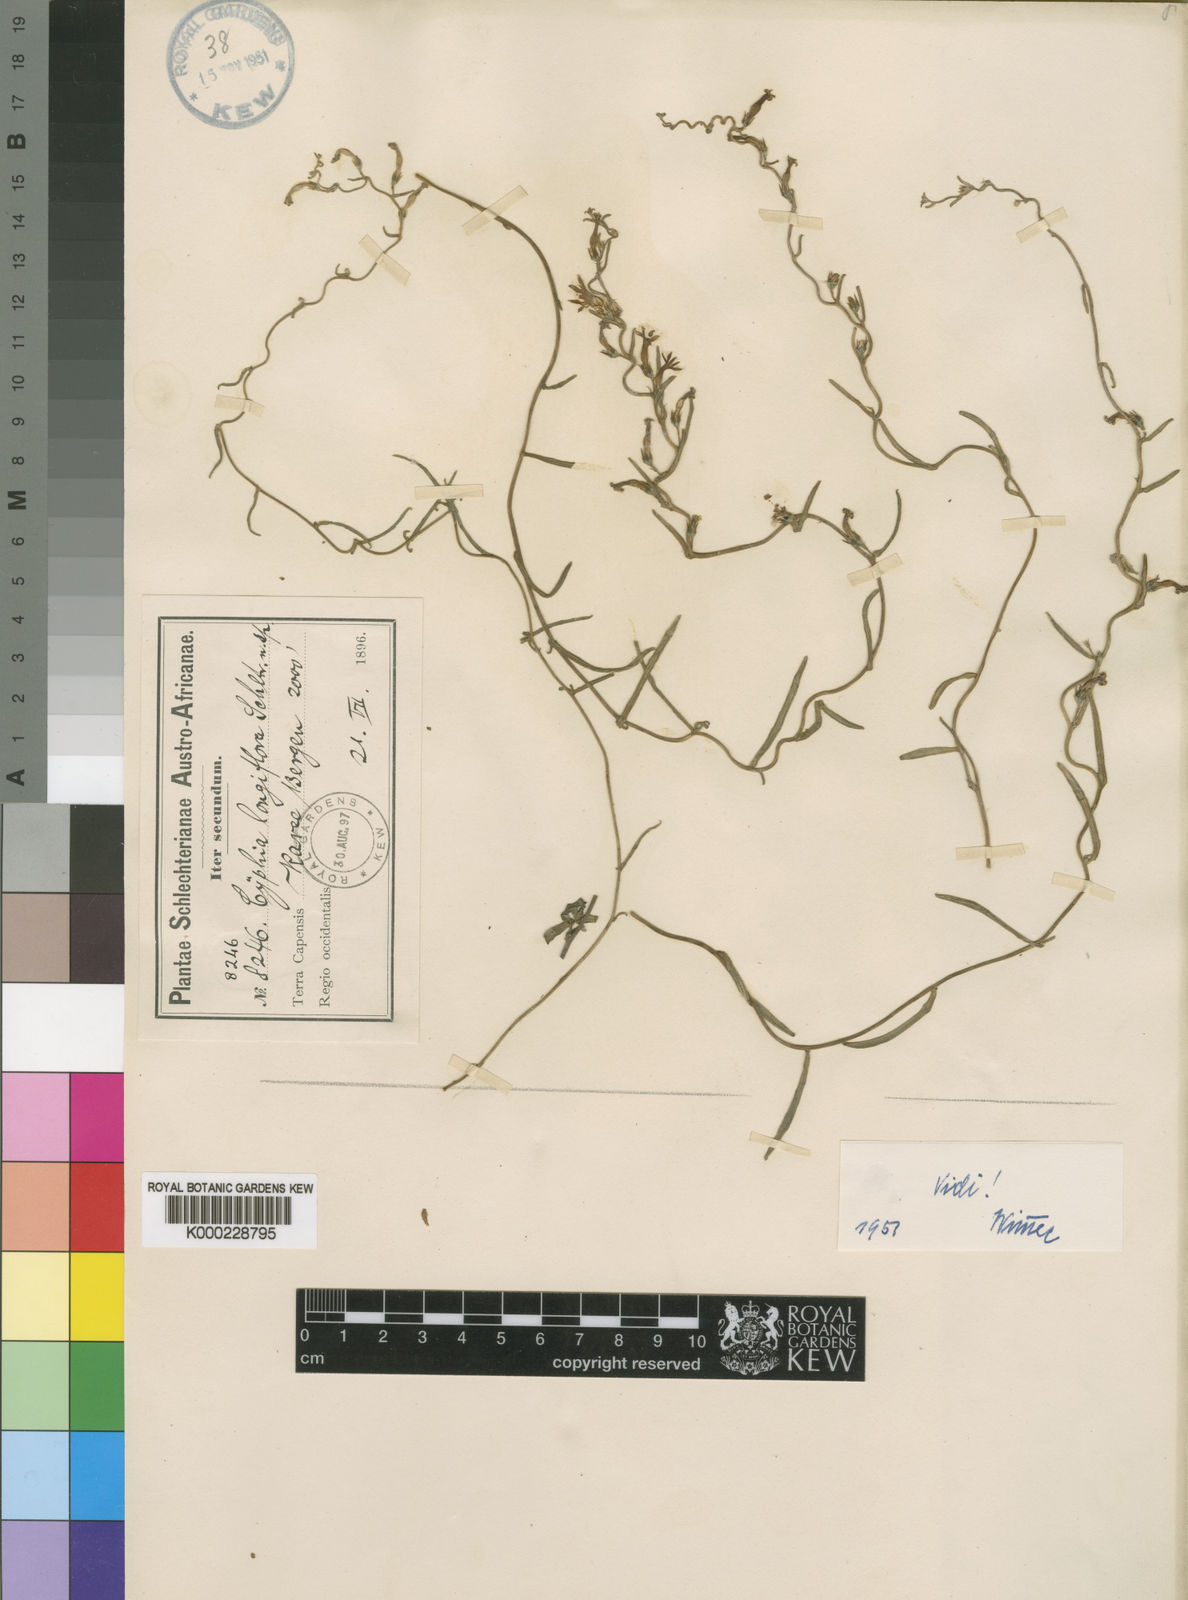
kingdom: Plantae
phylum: Tracheophyta
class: Magnoliopsida
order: Asterales
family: Campanulaceae
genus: Cyphia
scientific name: Cyphia longiflora
